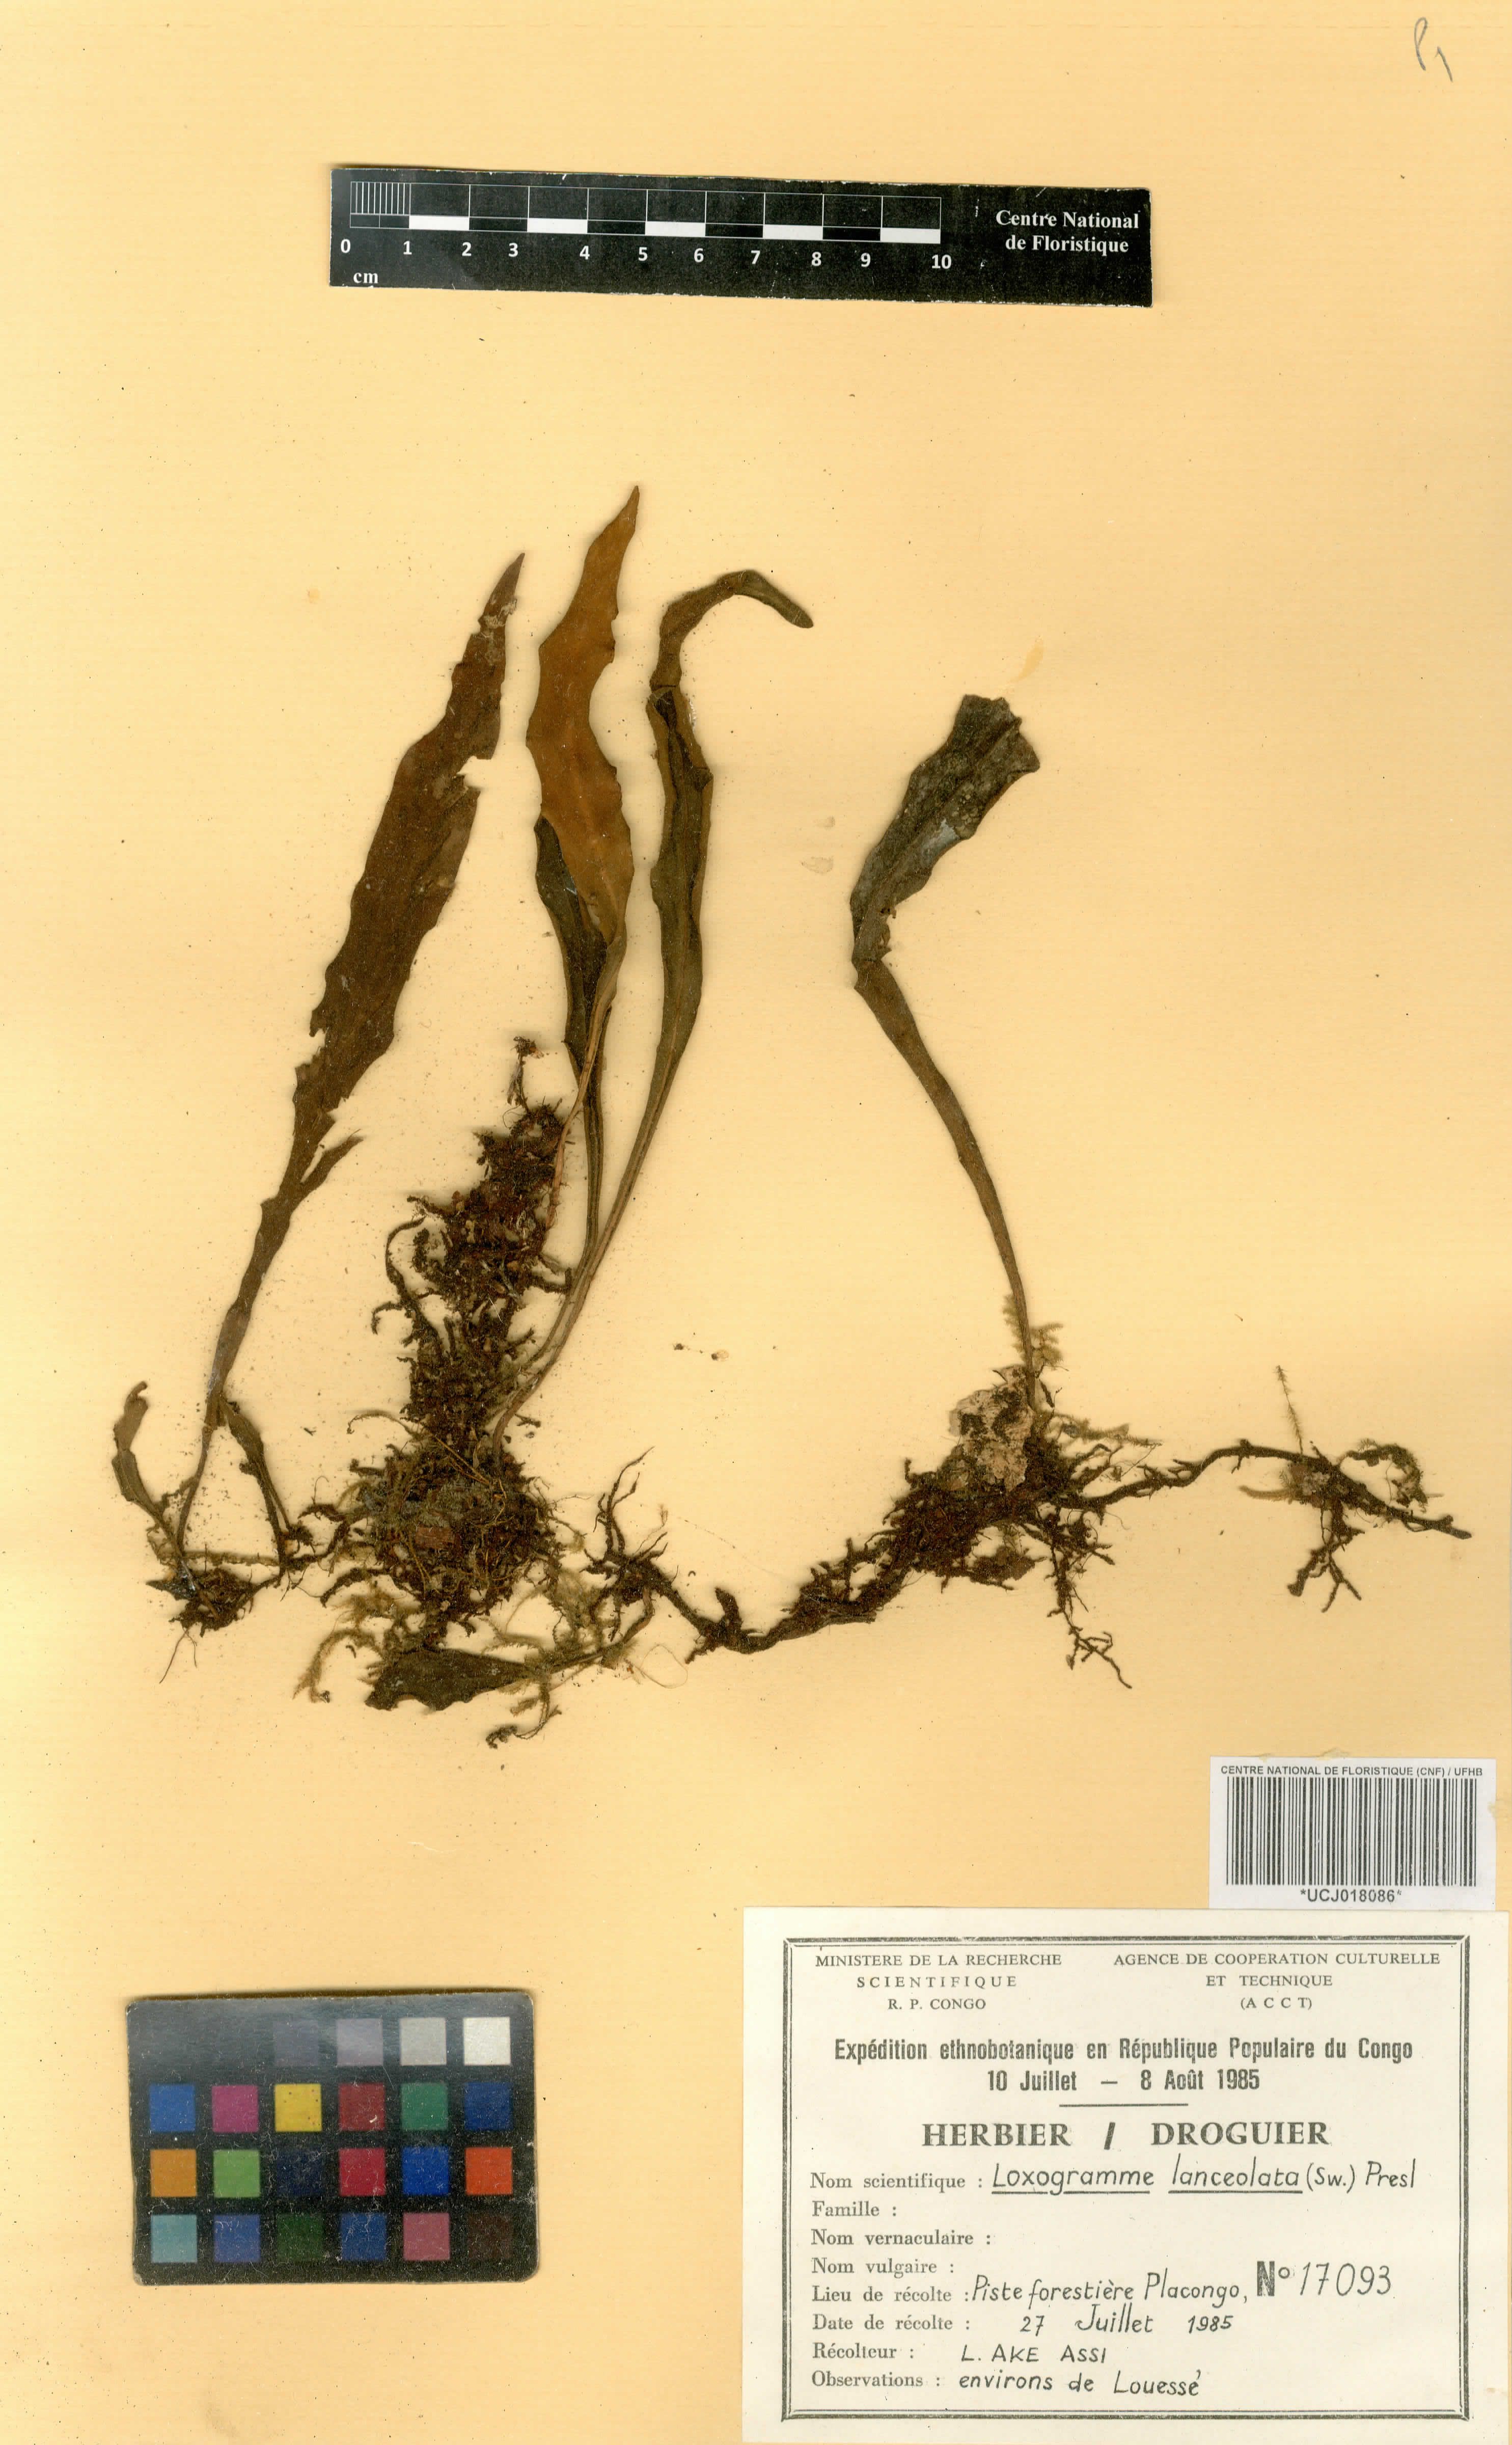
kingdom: Plantae
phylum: Tracheophyta
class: Polypodiopsida
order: Polypodiales
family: Polypodiaceae
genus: Loxogramme
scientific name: Loxogramme lanceolata
